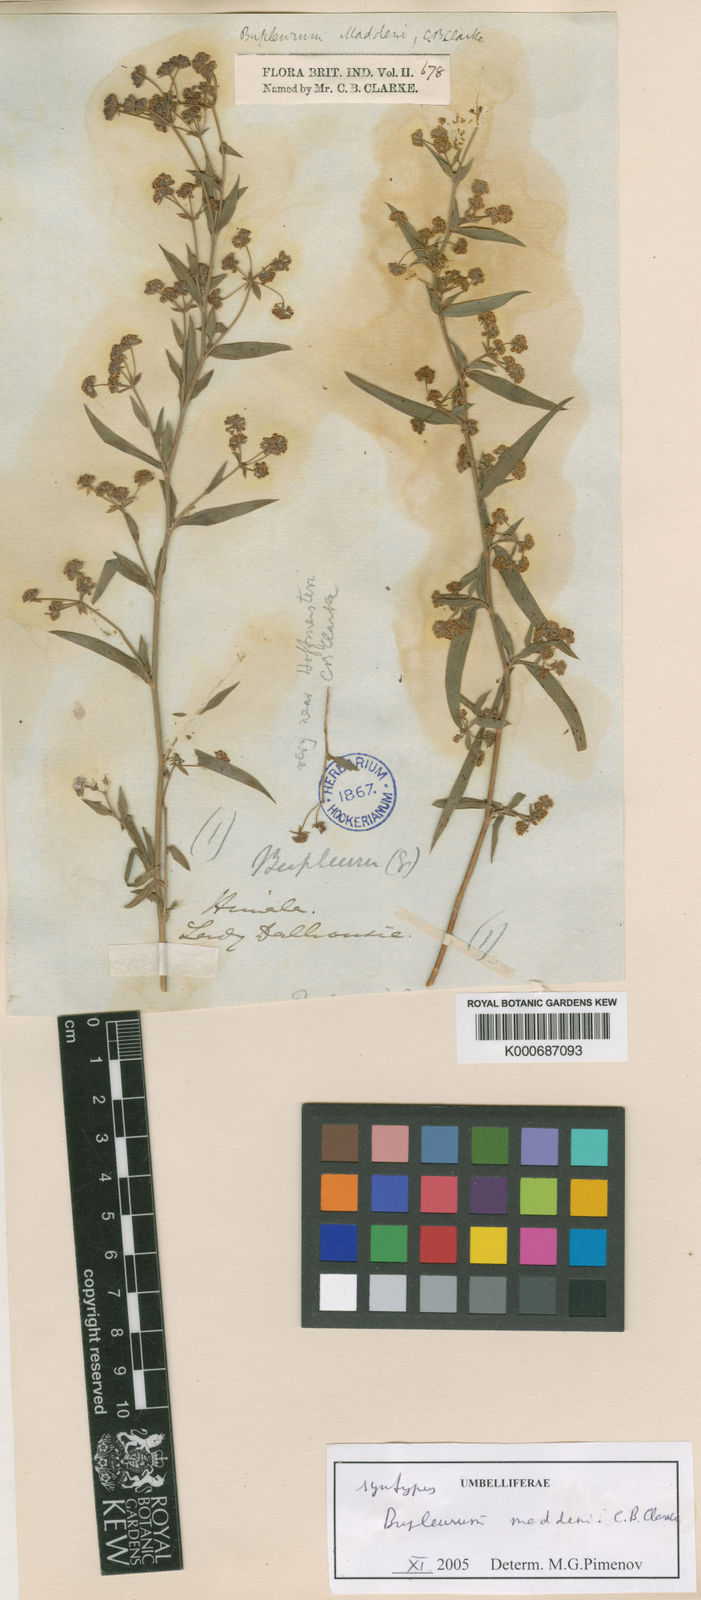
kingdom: Plantae
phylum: Tracheophyta
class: Magnoliopsida
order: Apiales
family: Apiaceae
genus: Bupleurum
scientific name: Bupleurum maddenii
